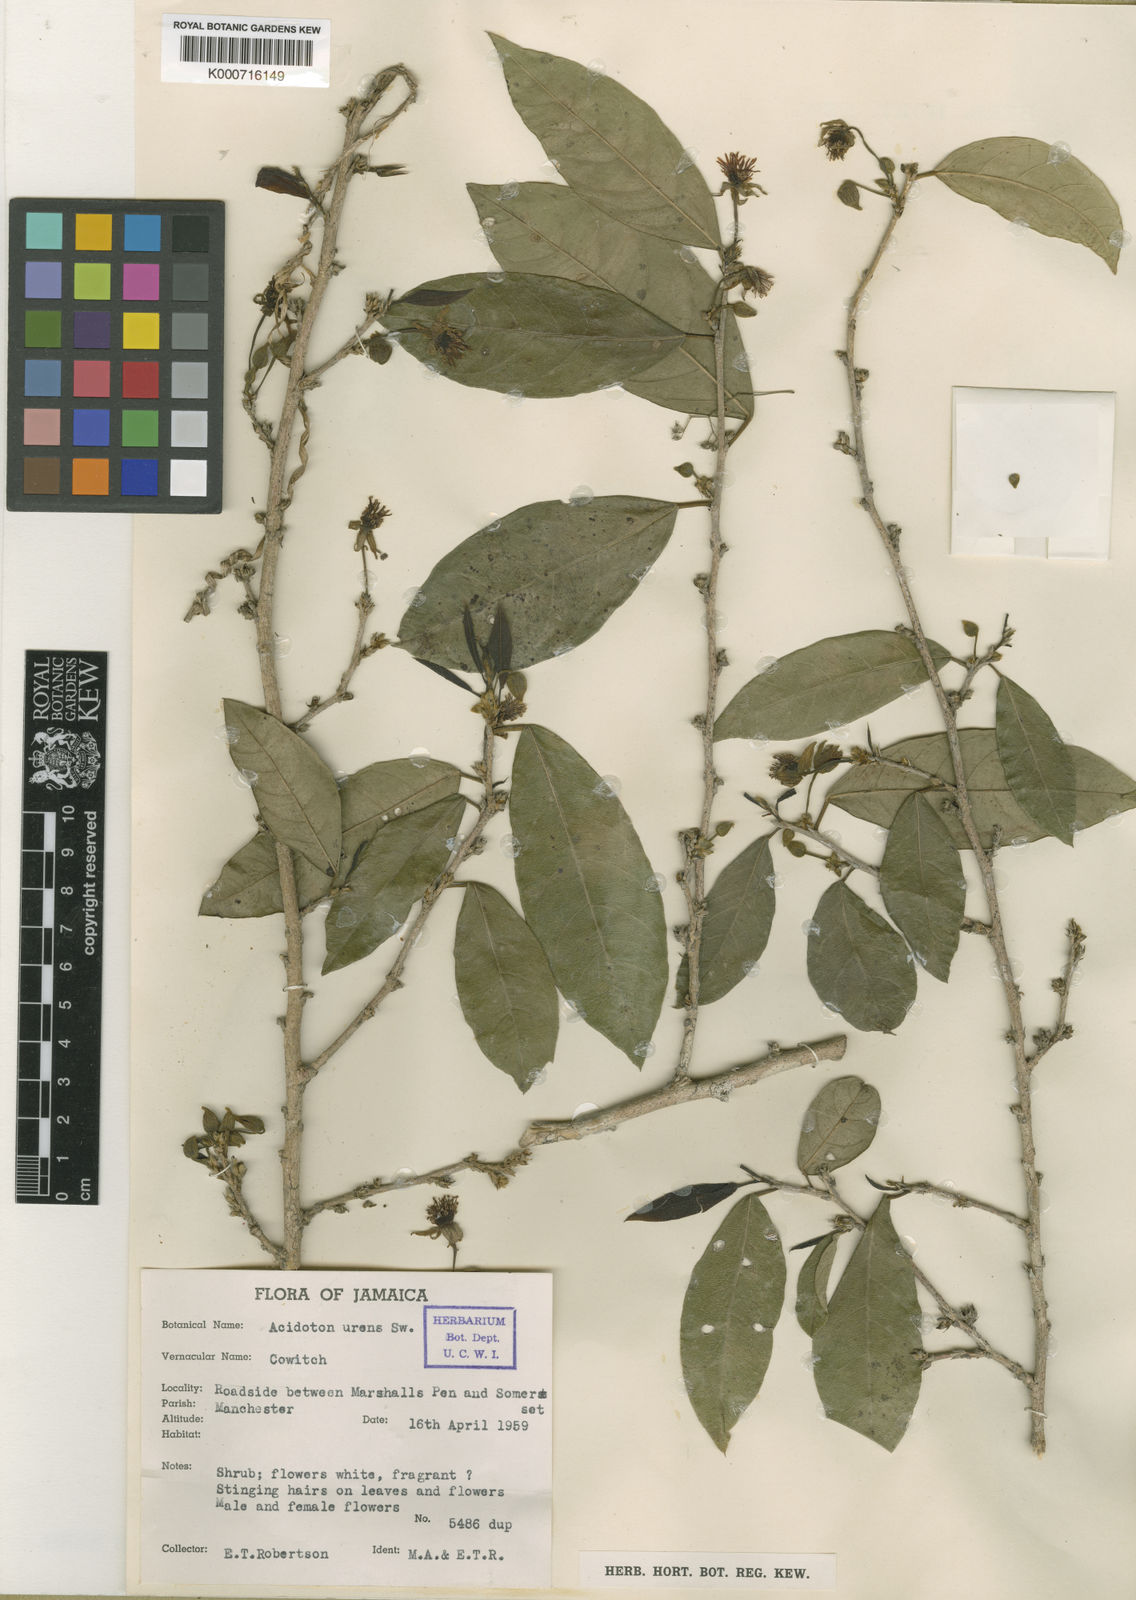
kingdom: Plantae
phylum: Tracheophyta
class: Magnoliopsida
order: Malpighiales
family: Euphorbiaceae
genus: Acidoton
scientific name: Acidoton urens
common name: Mountain cow-itch
